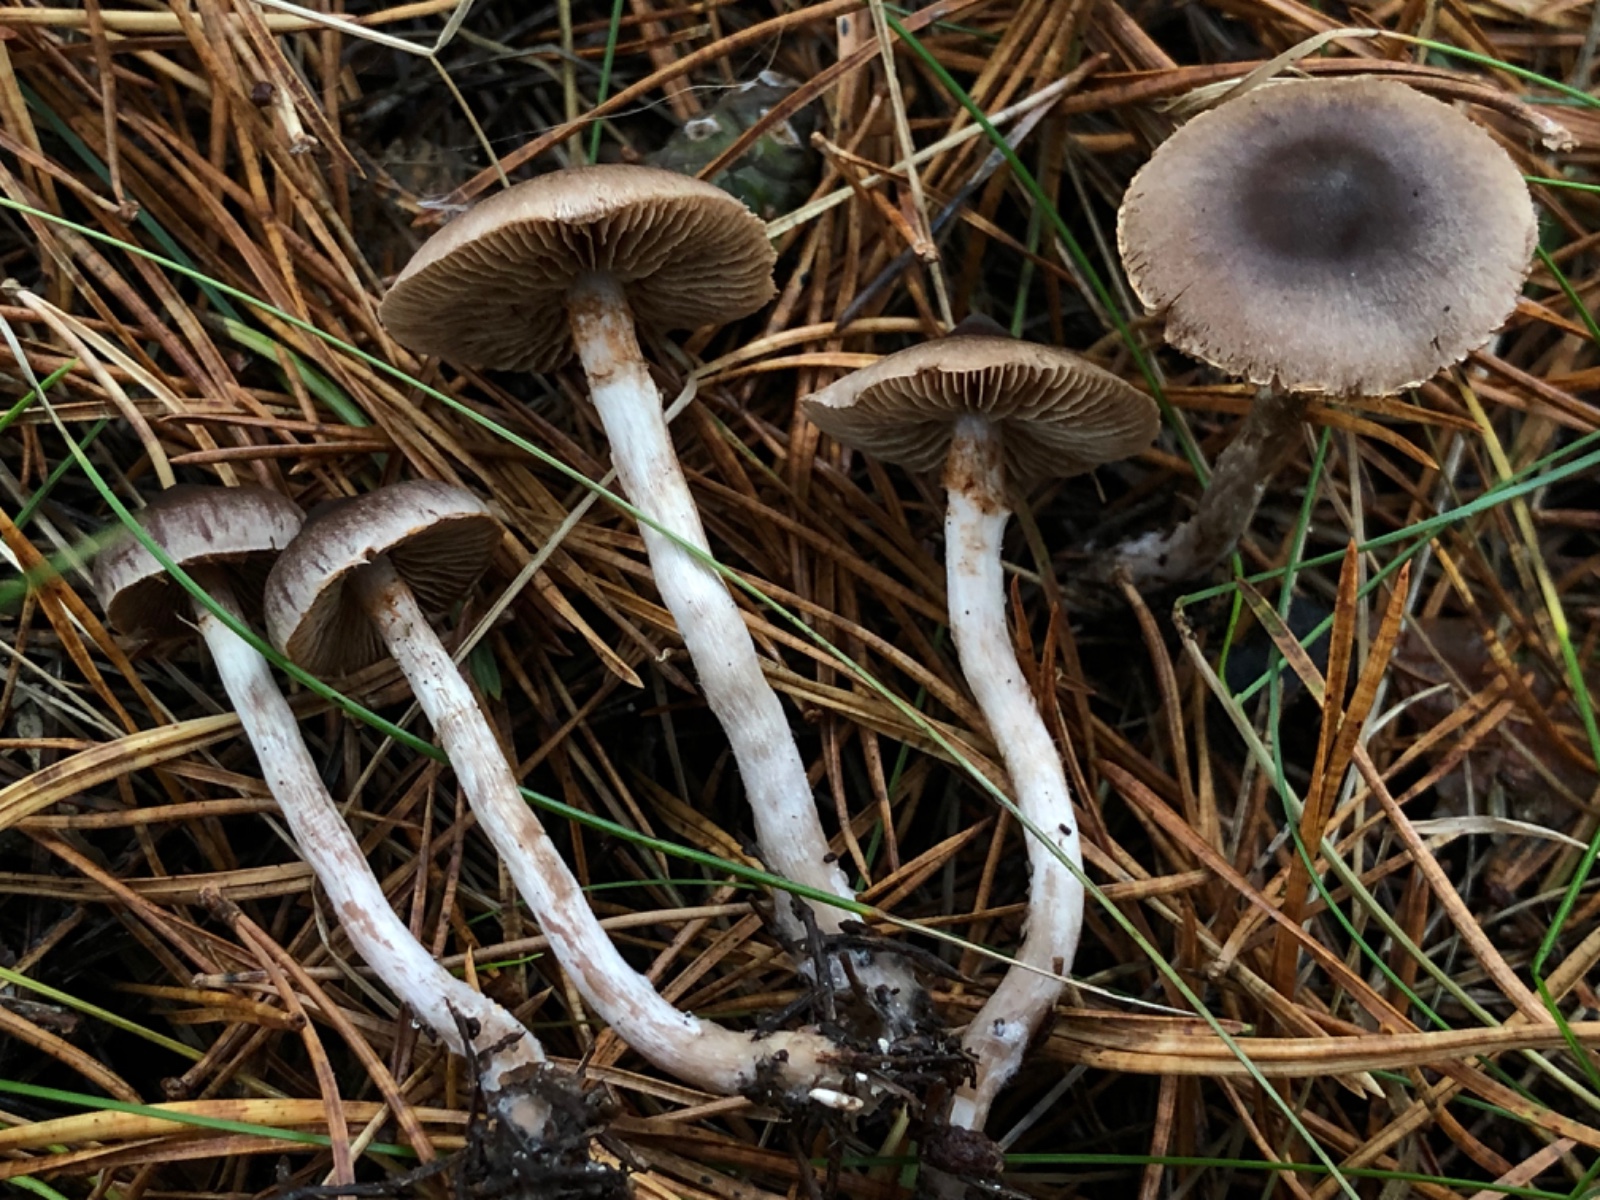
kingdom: Fungi
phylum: Basidiomycota
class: Agaricomycetes
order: Agaricales
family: Cortinariaceae
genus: Cortinarius
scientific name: Cortinarius decipiens
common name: mørkpuklet slørhat
